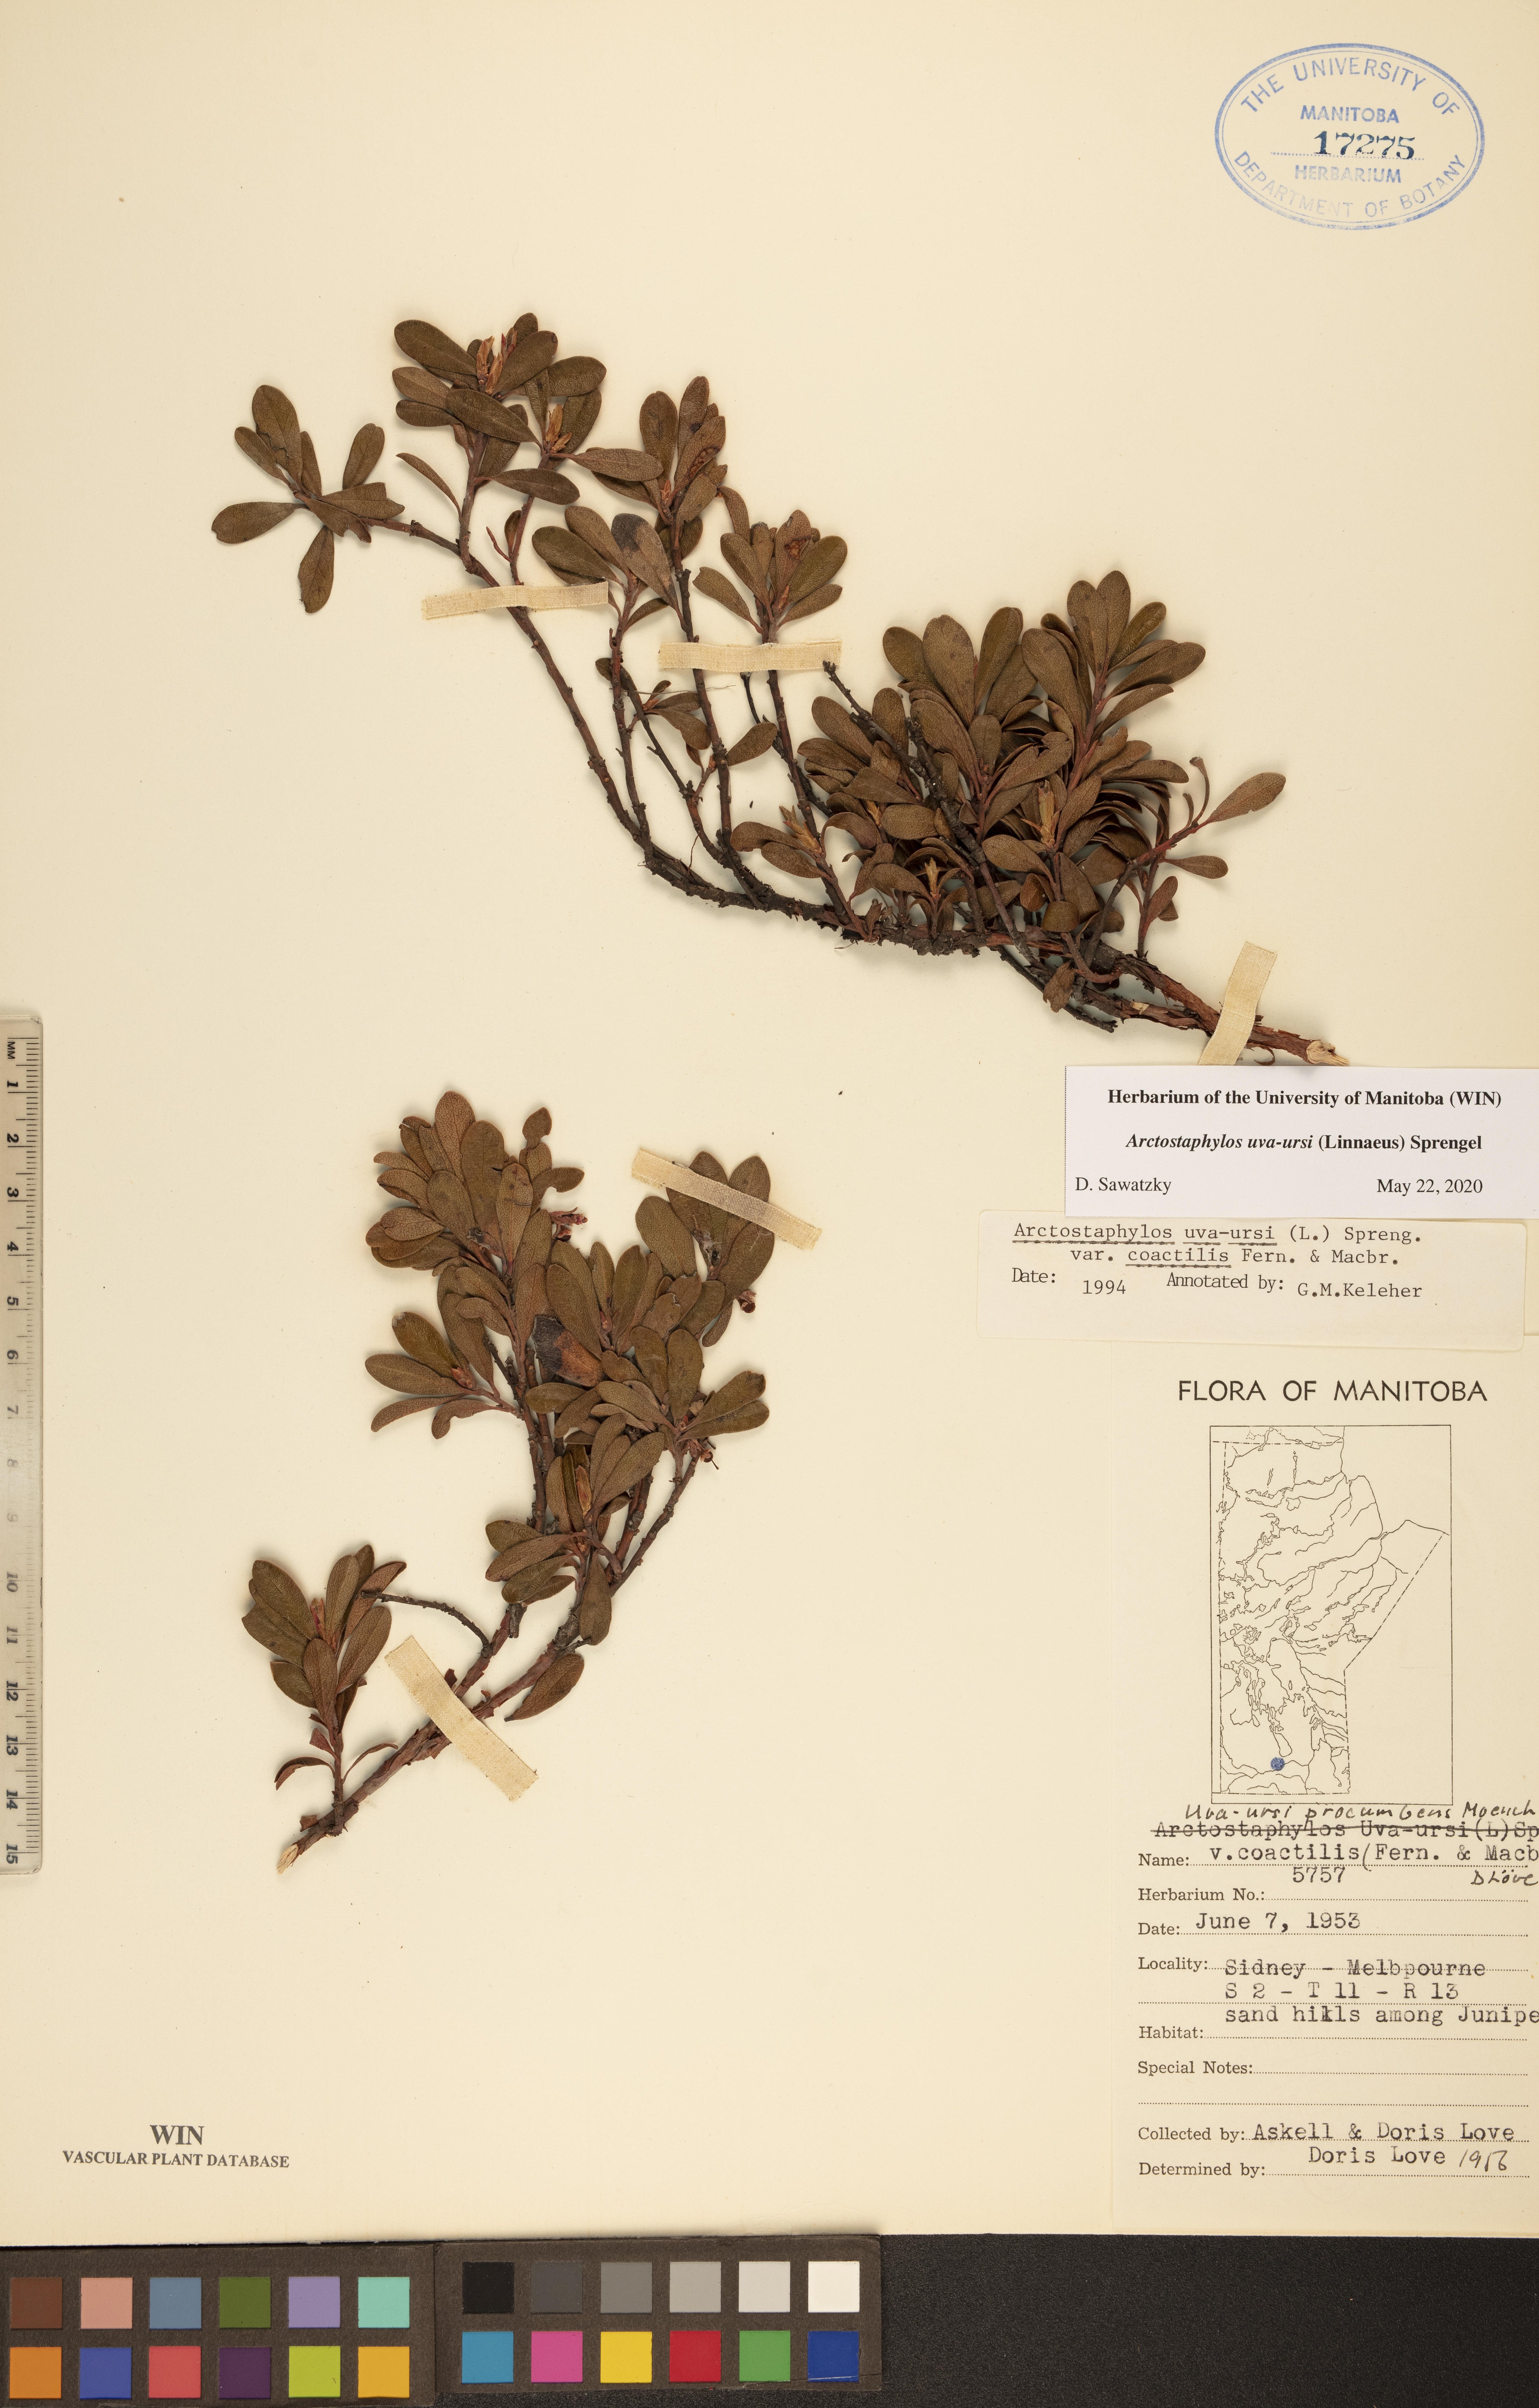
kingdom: Plantae
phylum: Tracheophyta
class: Magnoliopsida
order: Ericales
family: Ericaceae
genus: Arctostaphylos
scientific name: Arctostaphylos uva-ursi
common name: Bearberry
